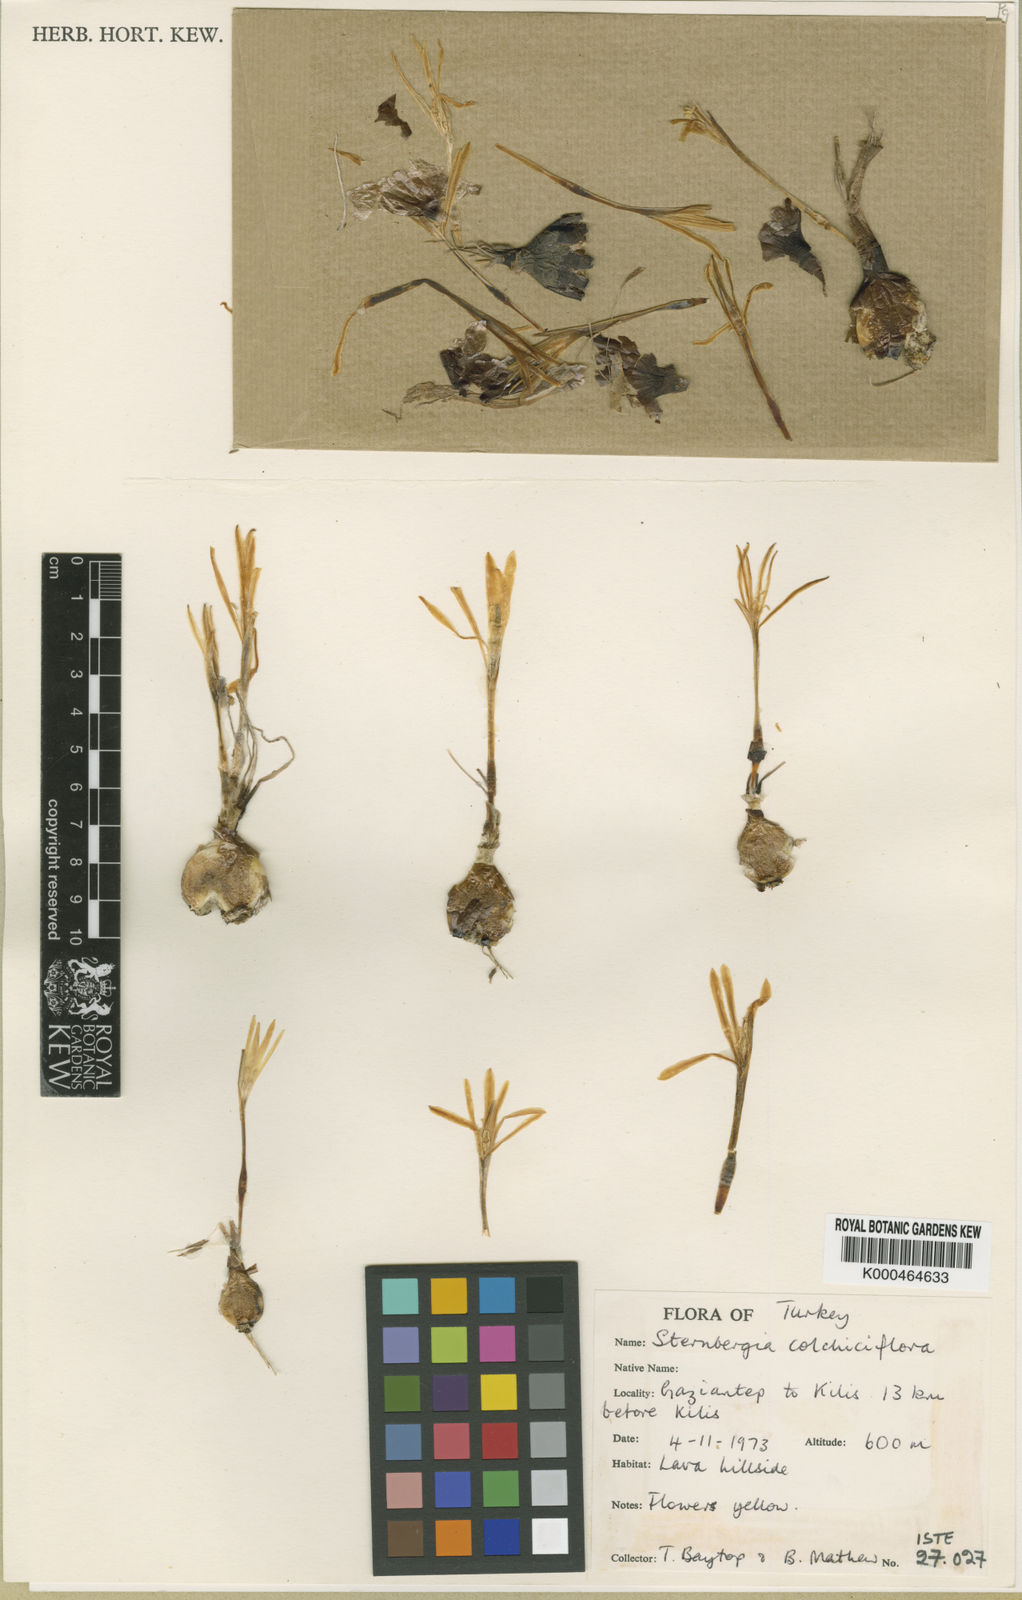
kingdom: Plantae
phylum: Tracheophyta
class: Liliopsida
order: Asparagales
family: Amaryllidaceae
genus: Sternbergia
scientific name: Sternbergia colchiciflora
